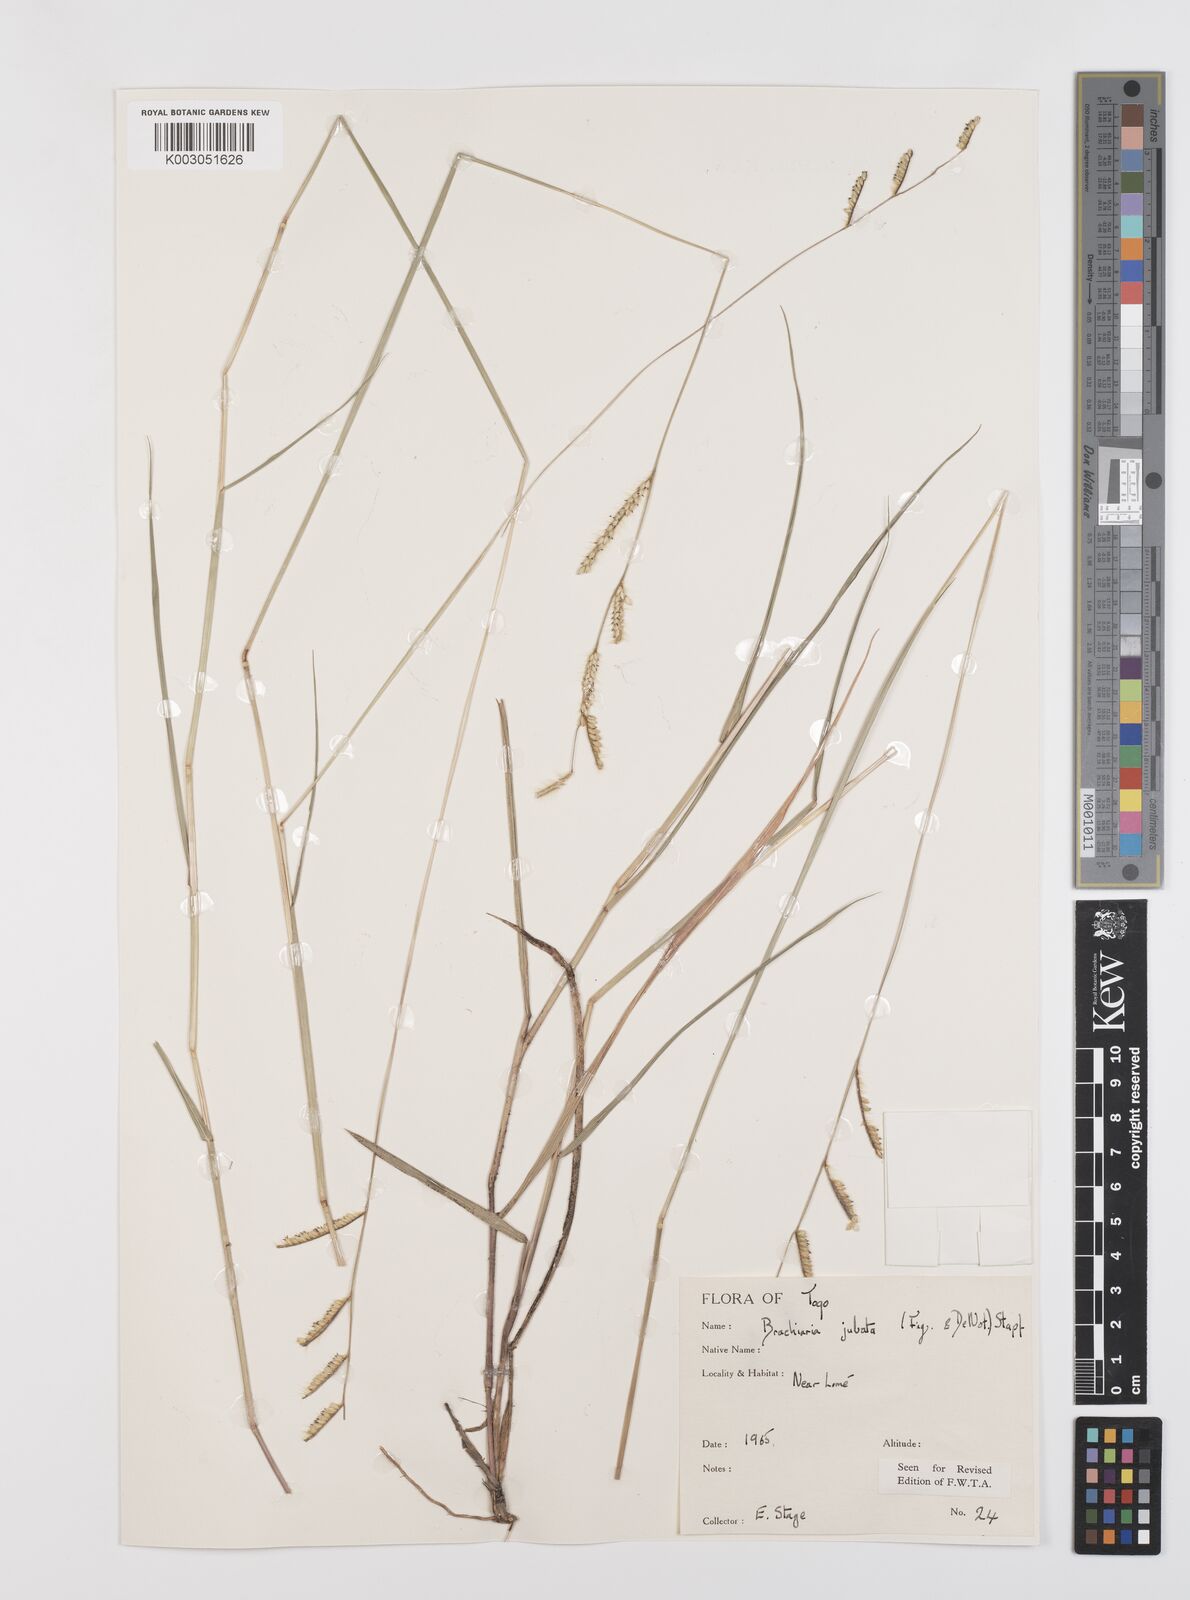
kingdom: Plantae
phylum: Tracheophyta
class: Liliopsida
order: Poales
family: Poaceae
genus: Urochloa
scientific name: Urochloa jubata
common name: Buffalograss
